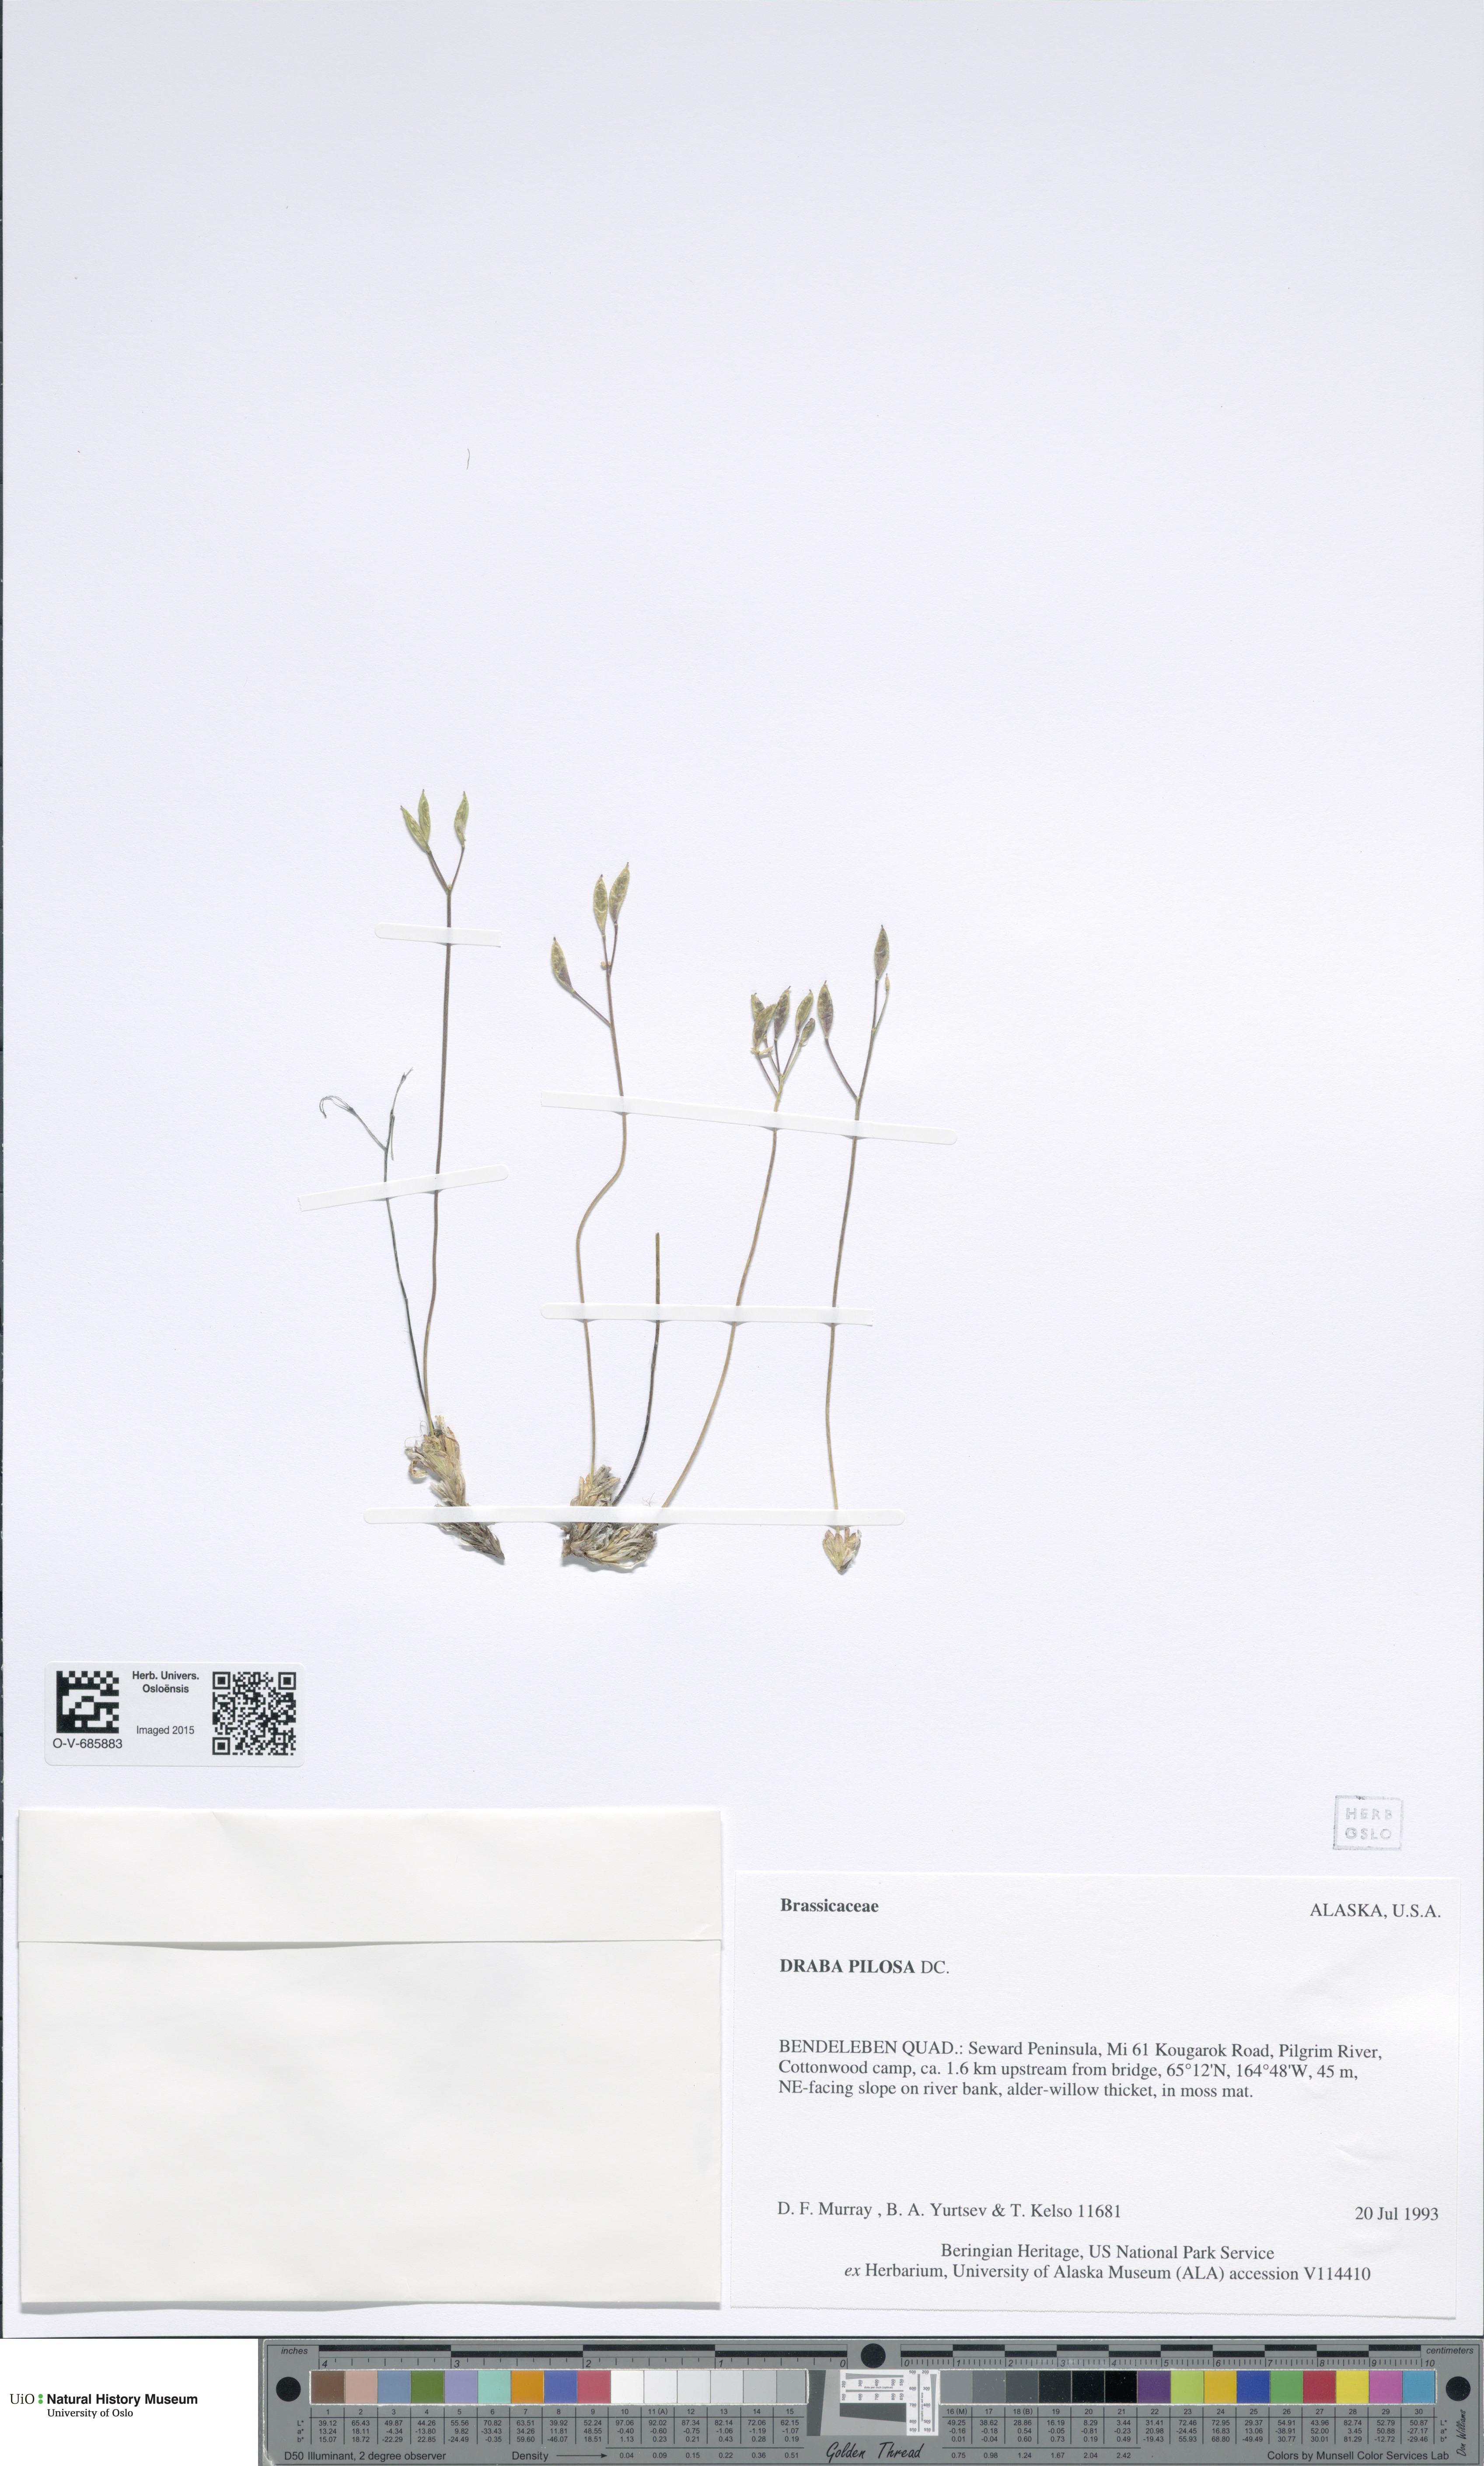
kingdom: Plantae
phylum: Tracheophyta
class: Magnoliopsida
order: Brassicales
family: Brassicaceae
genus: Draba
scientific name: Draba pilosa
